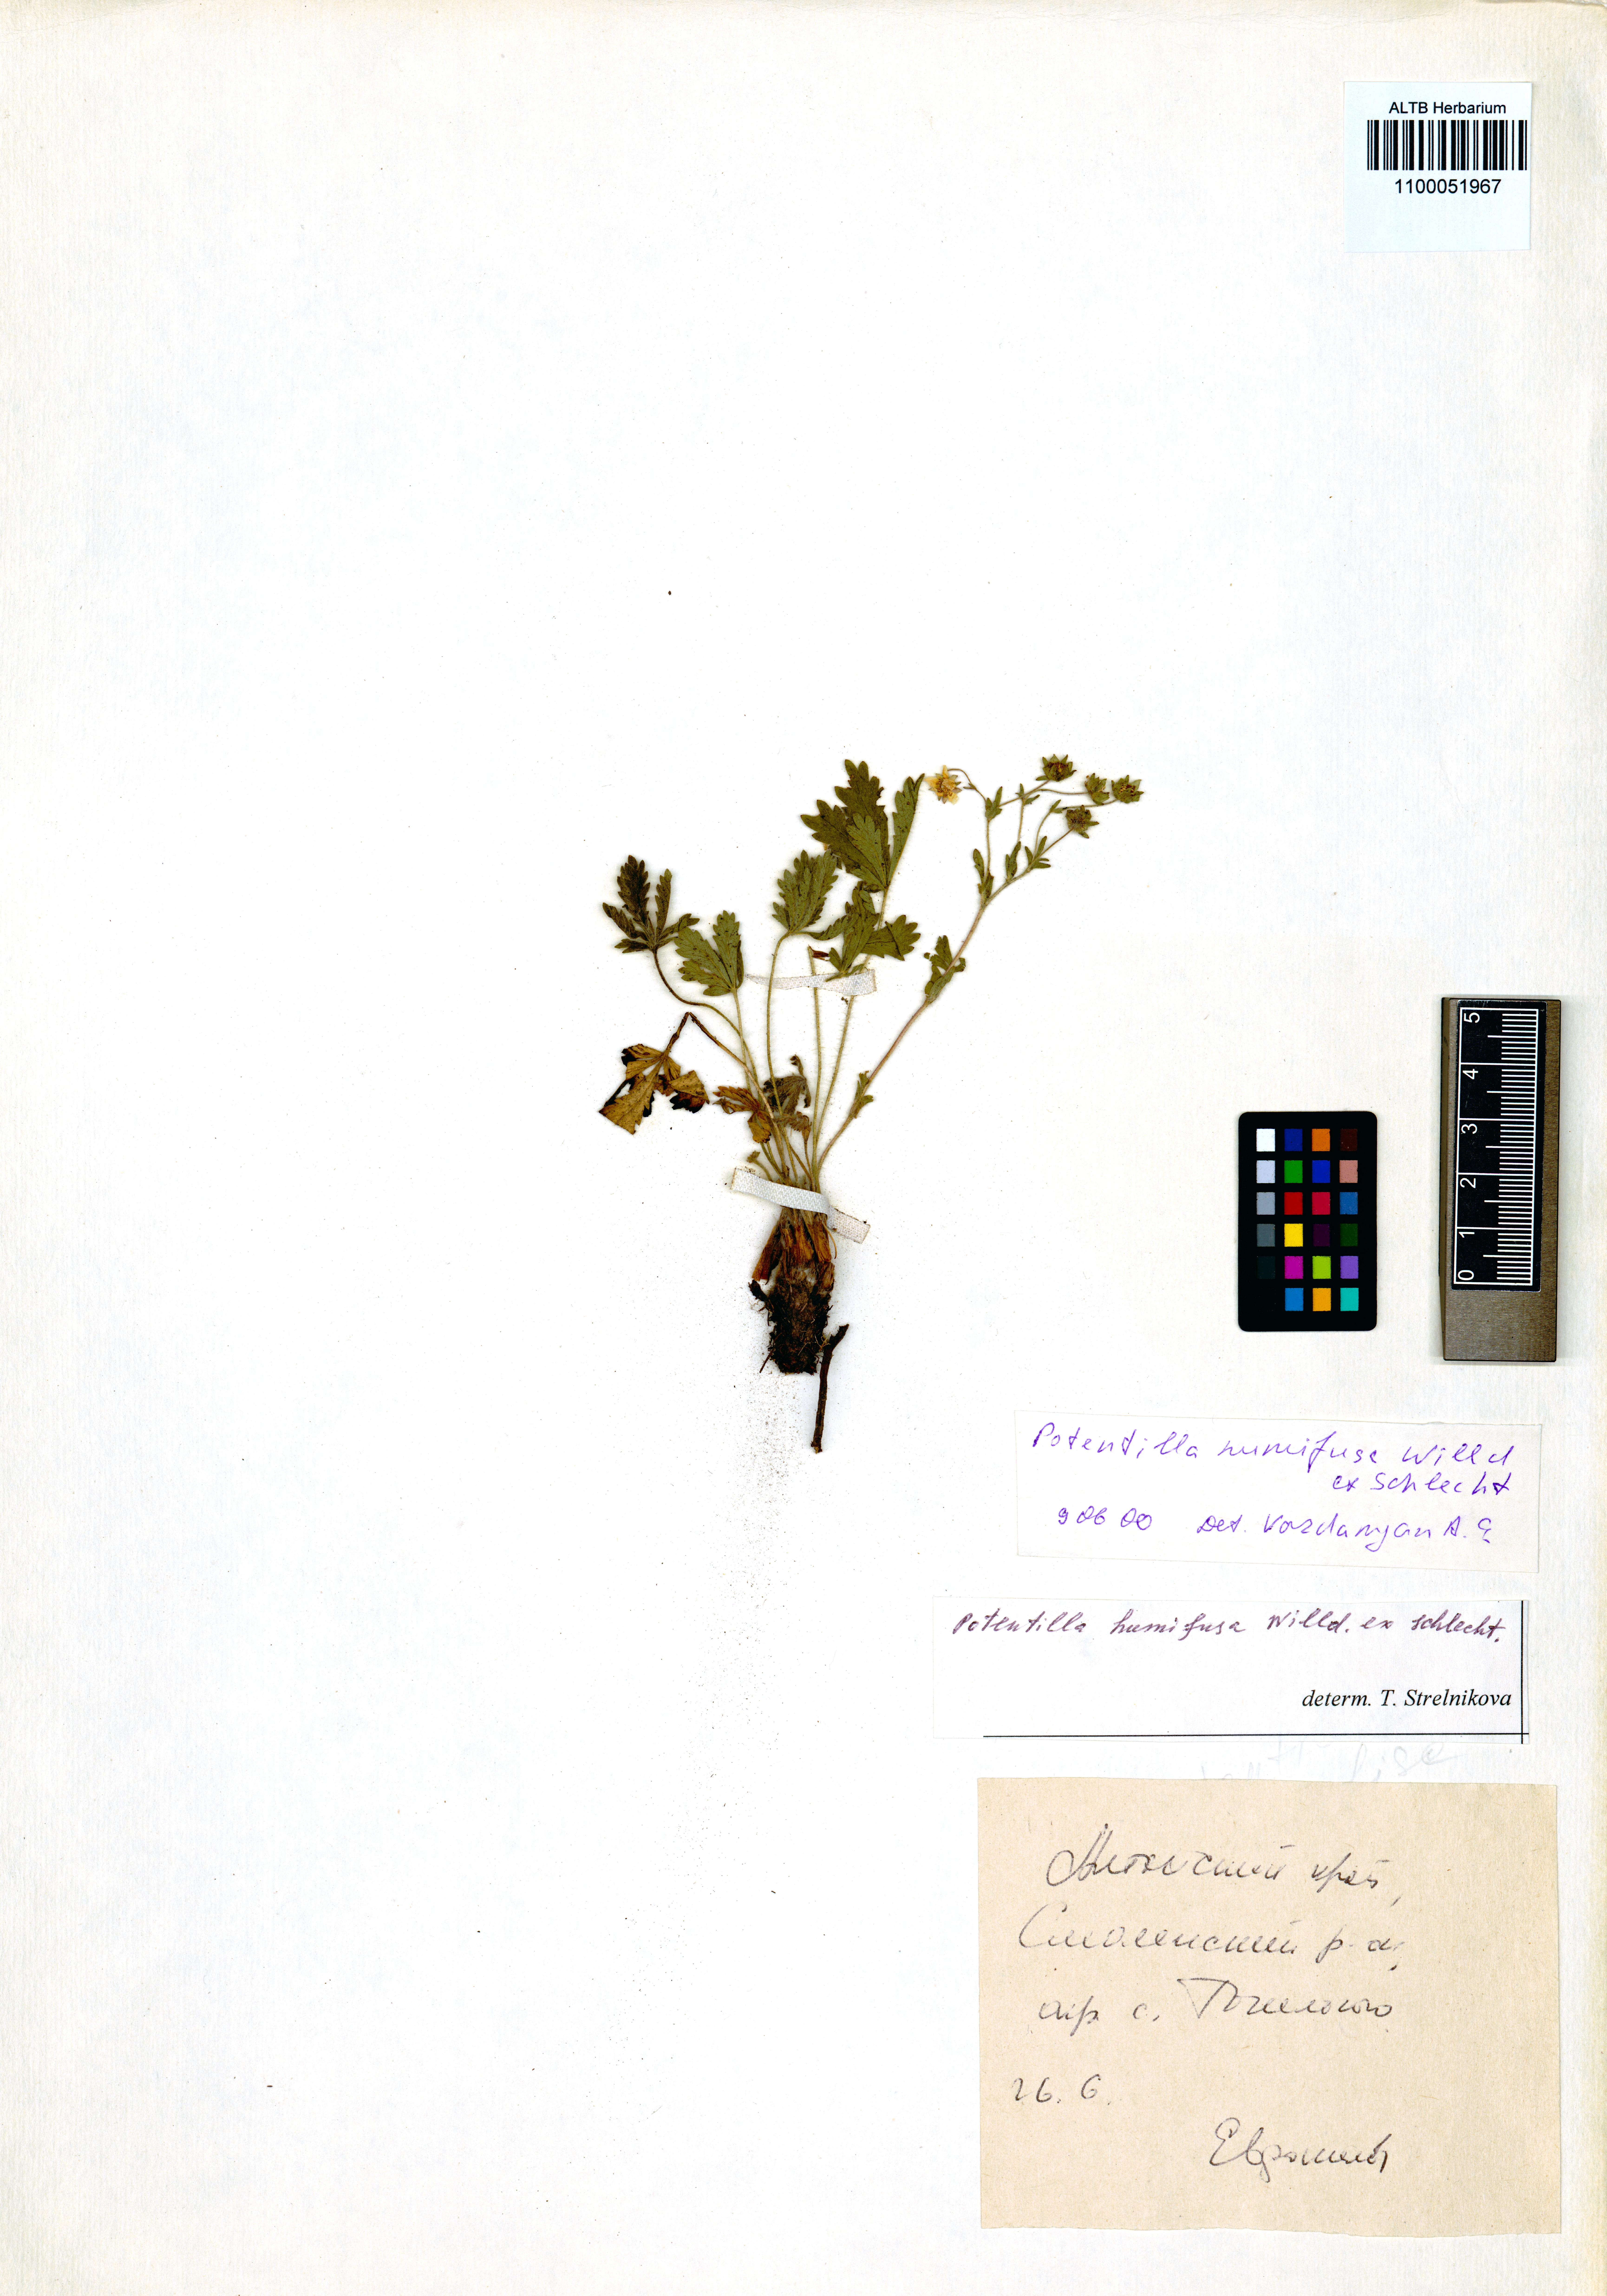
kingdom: Plantae
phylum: Tracheophyta
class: Magnoliopsida
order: Rosales
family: Rosaceae
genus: Potentilla
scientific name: Potentilla humifusa
